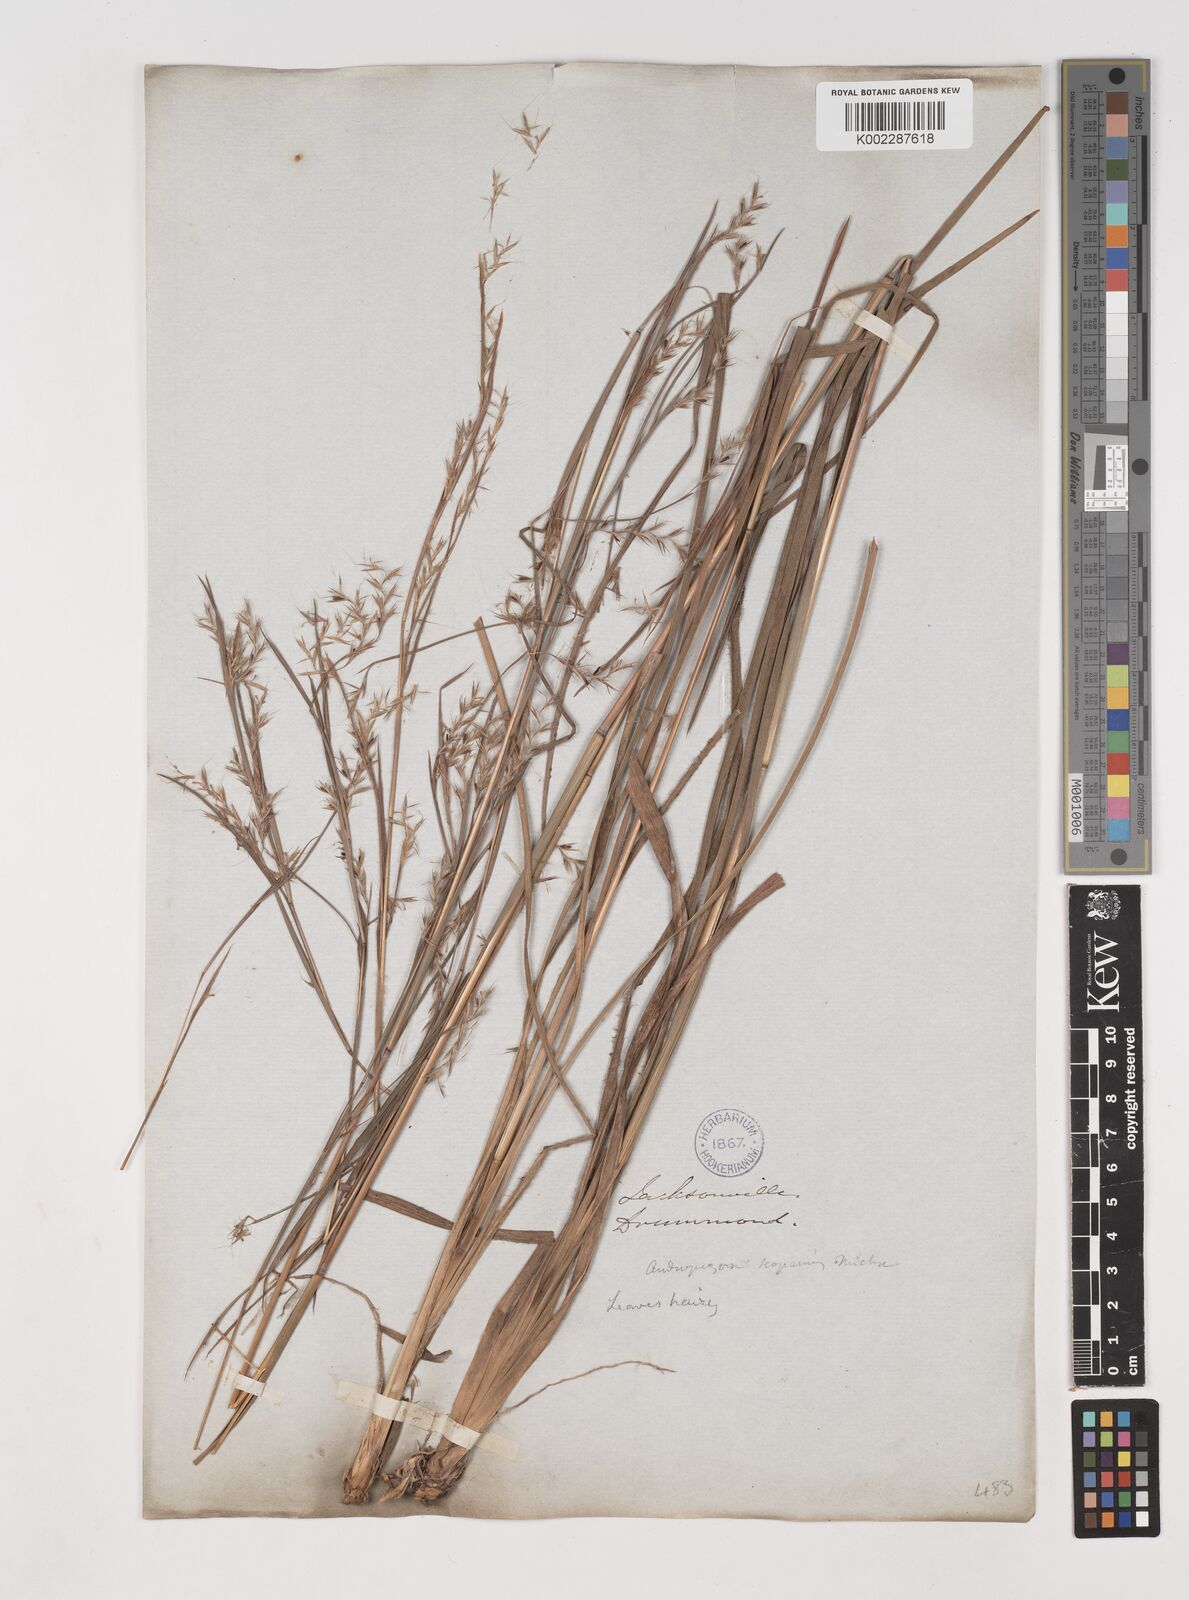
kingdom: Plantae
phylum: Tracheophyta
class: Liliopsida
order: Poales
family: Poaceae
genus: Schizachyrium
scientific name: Schizachyrium scoparium
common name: Little bluestem
